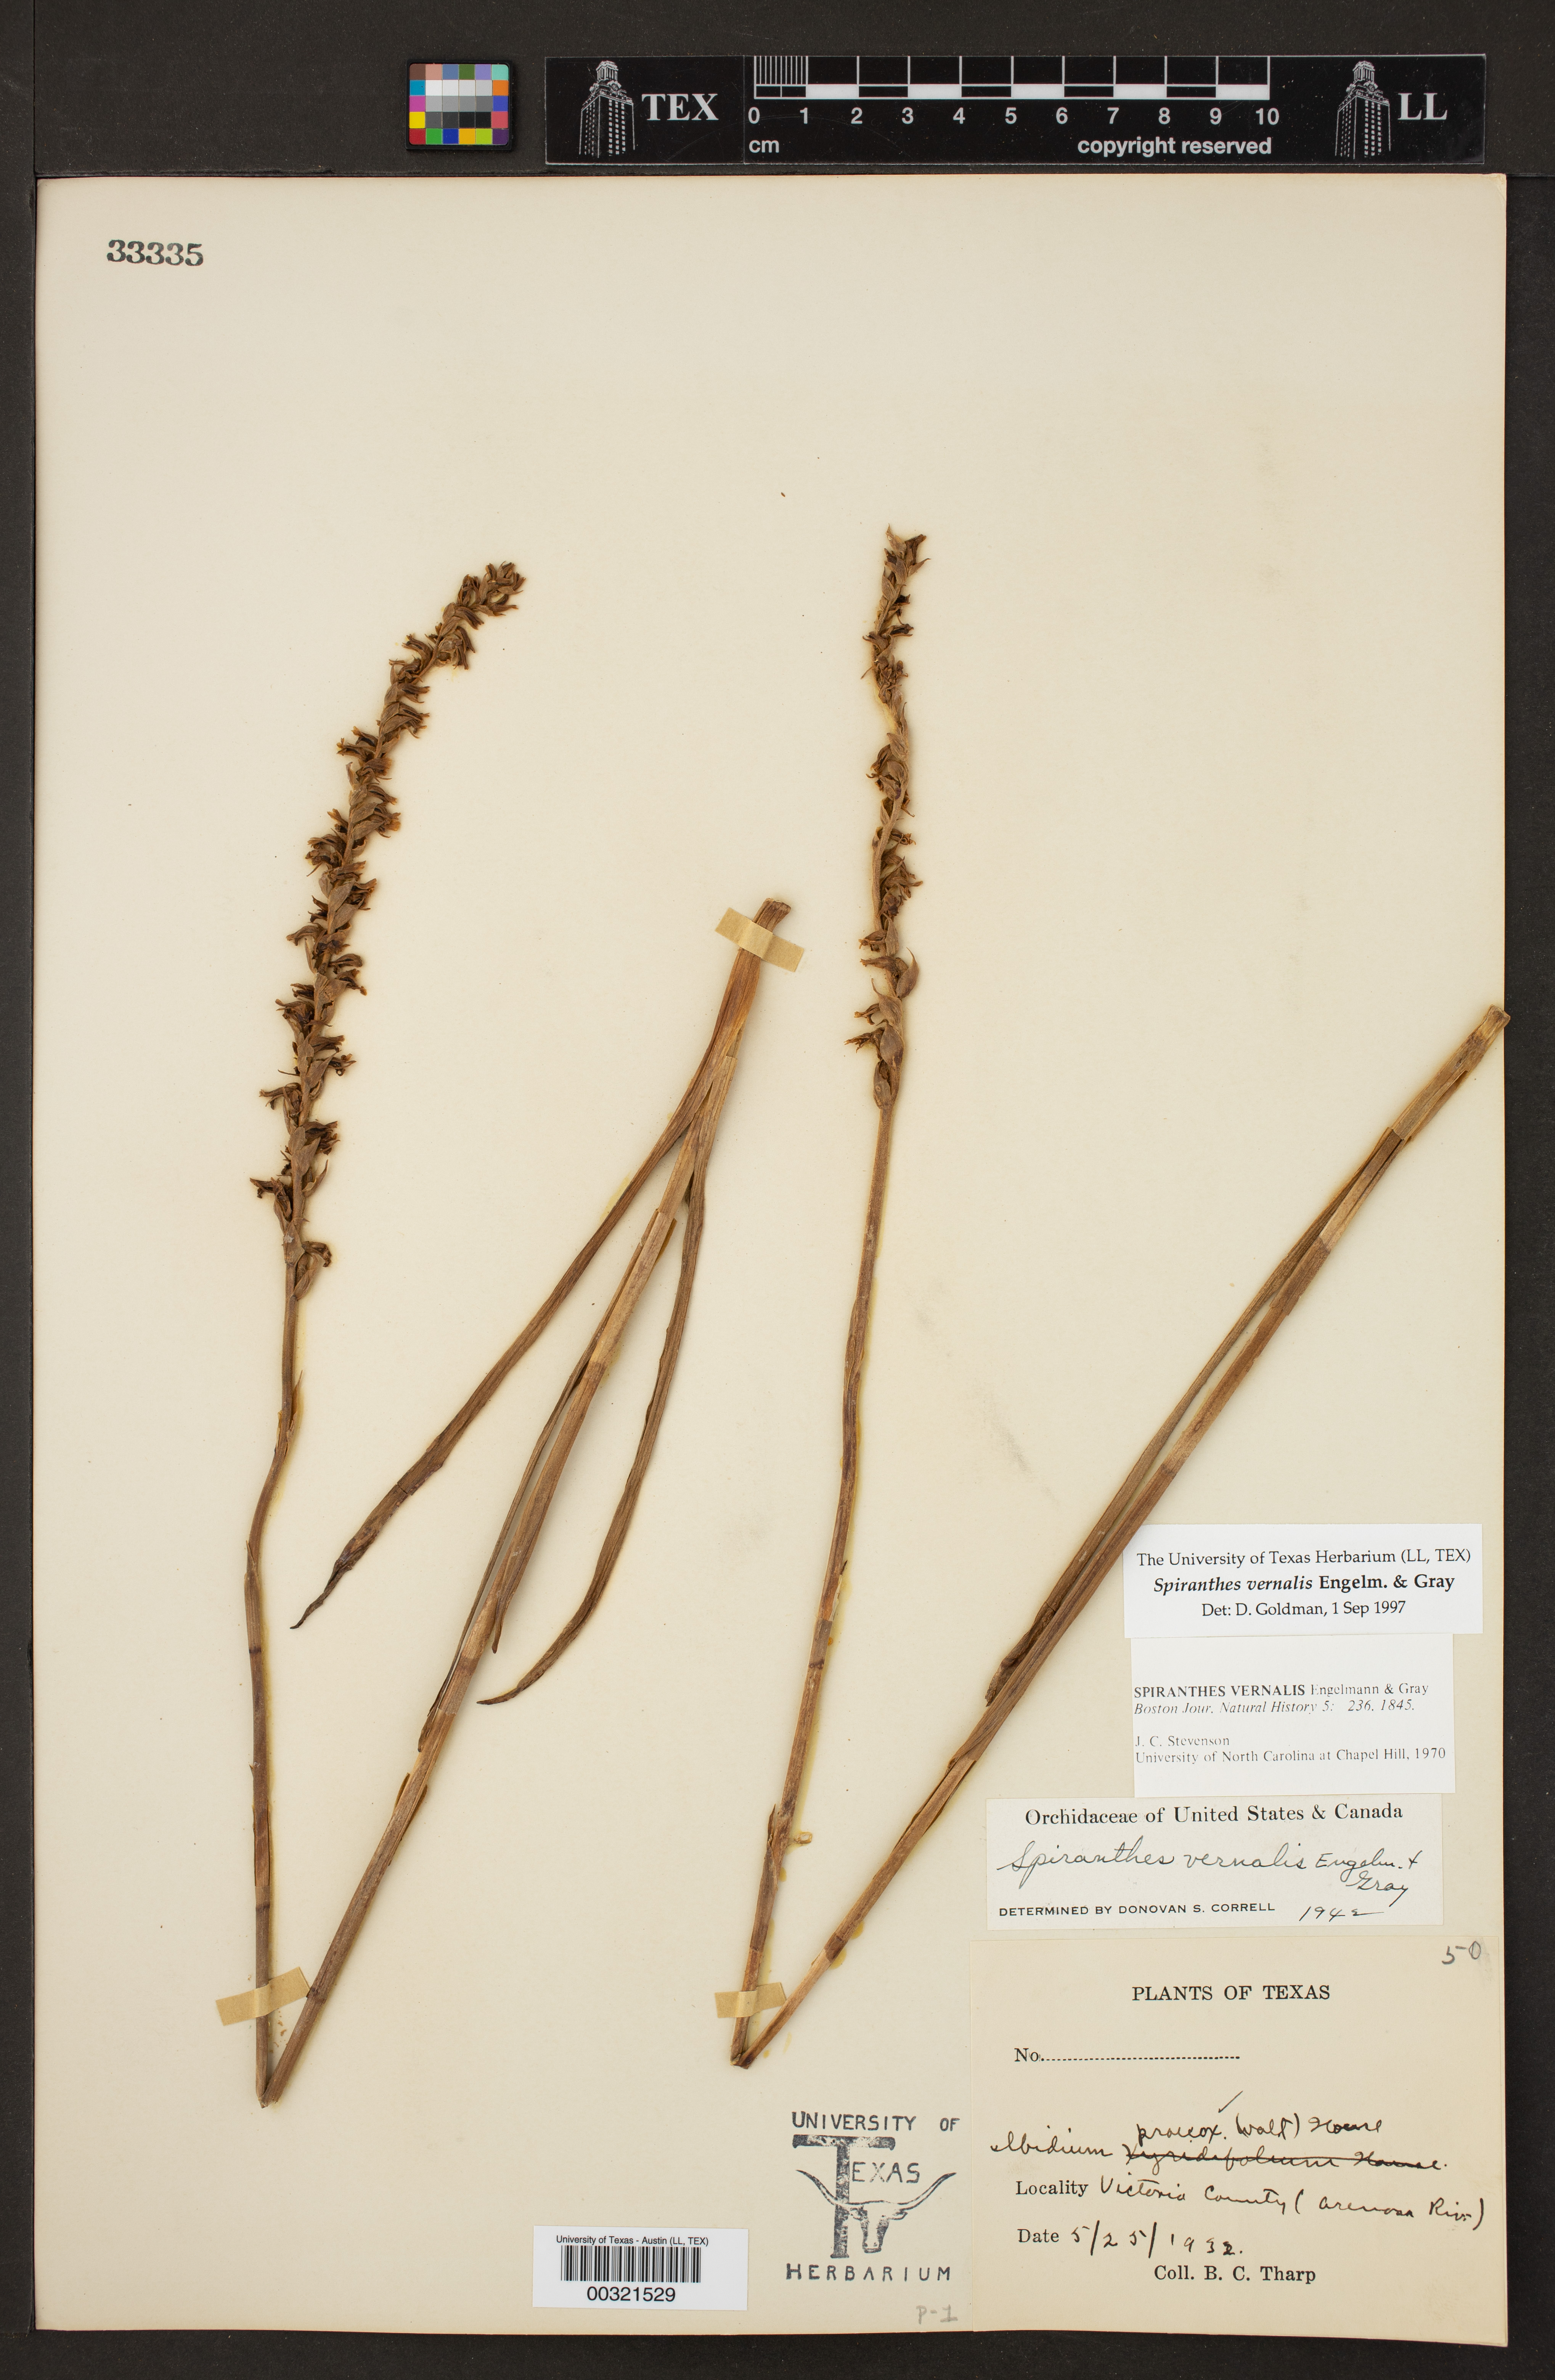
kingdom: Plantae
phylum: Tracheophyta
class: Liliopsida
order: Asparagales
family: Orchidaceae
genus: Spiranthes
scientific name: Spiranthes vernalis
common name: Spring ladies'-tresses
